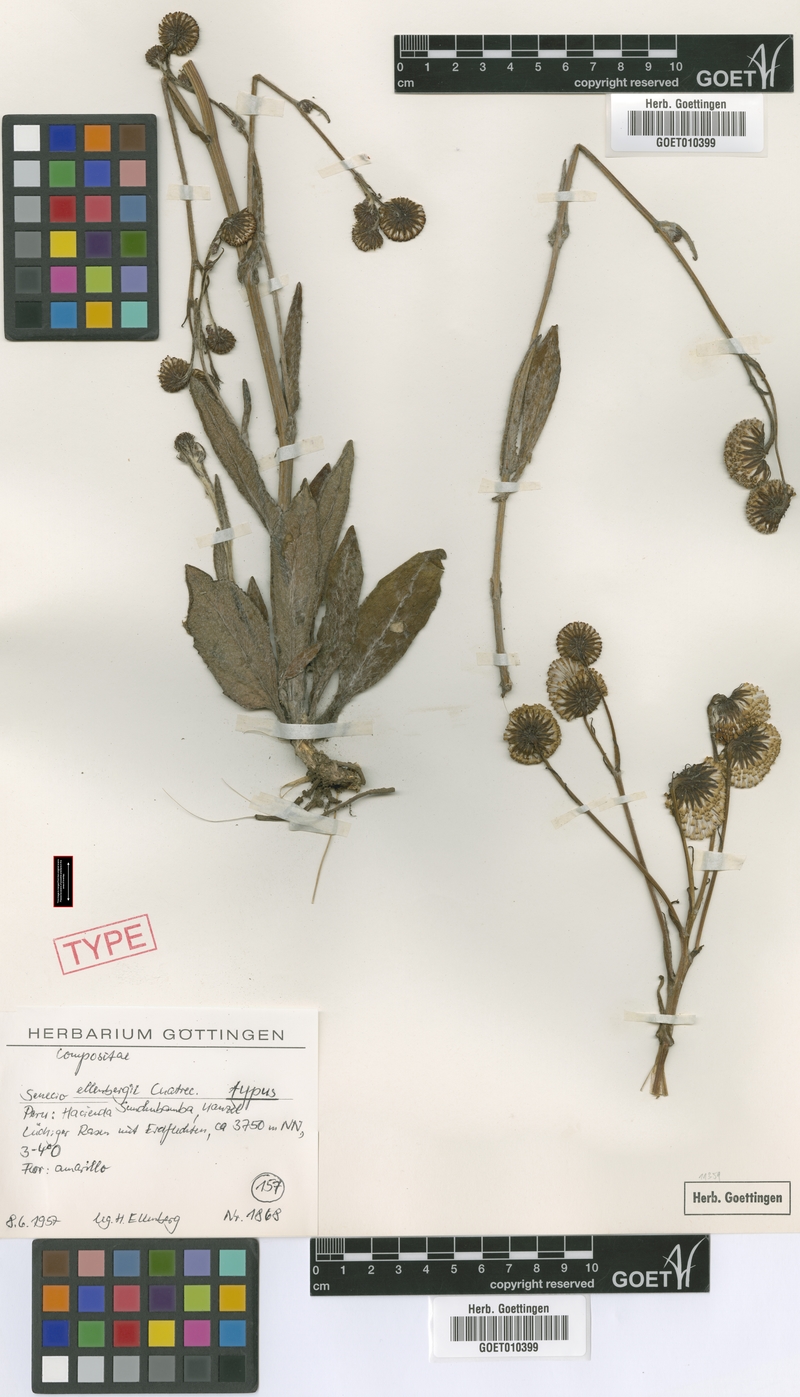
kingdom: Plantae
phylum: Tracheophyta
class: Magnoliopsida
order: Asterales
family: Asteraceae
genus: Senecio
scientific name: Senecio ellenbergii
